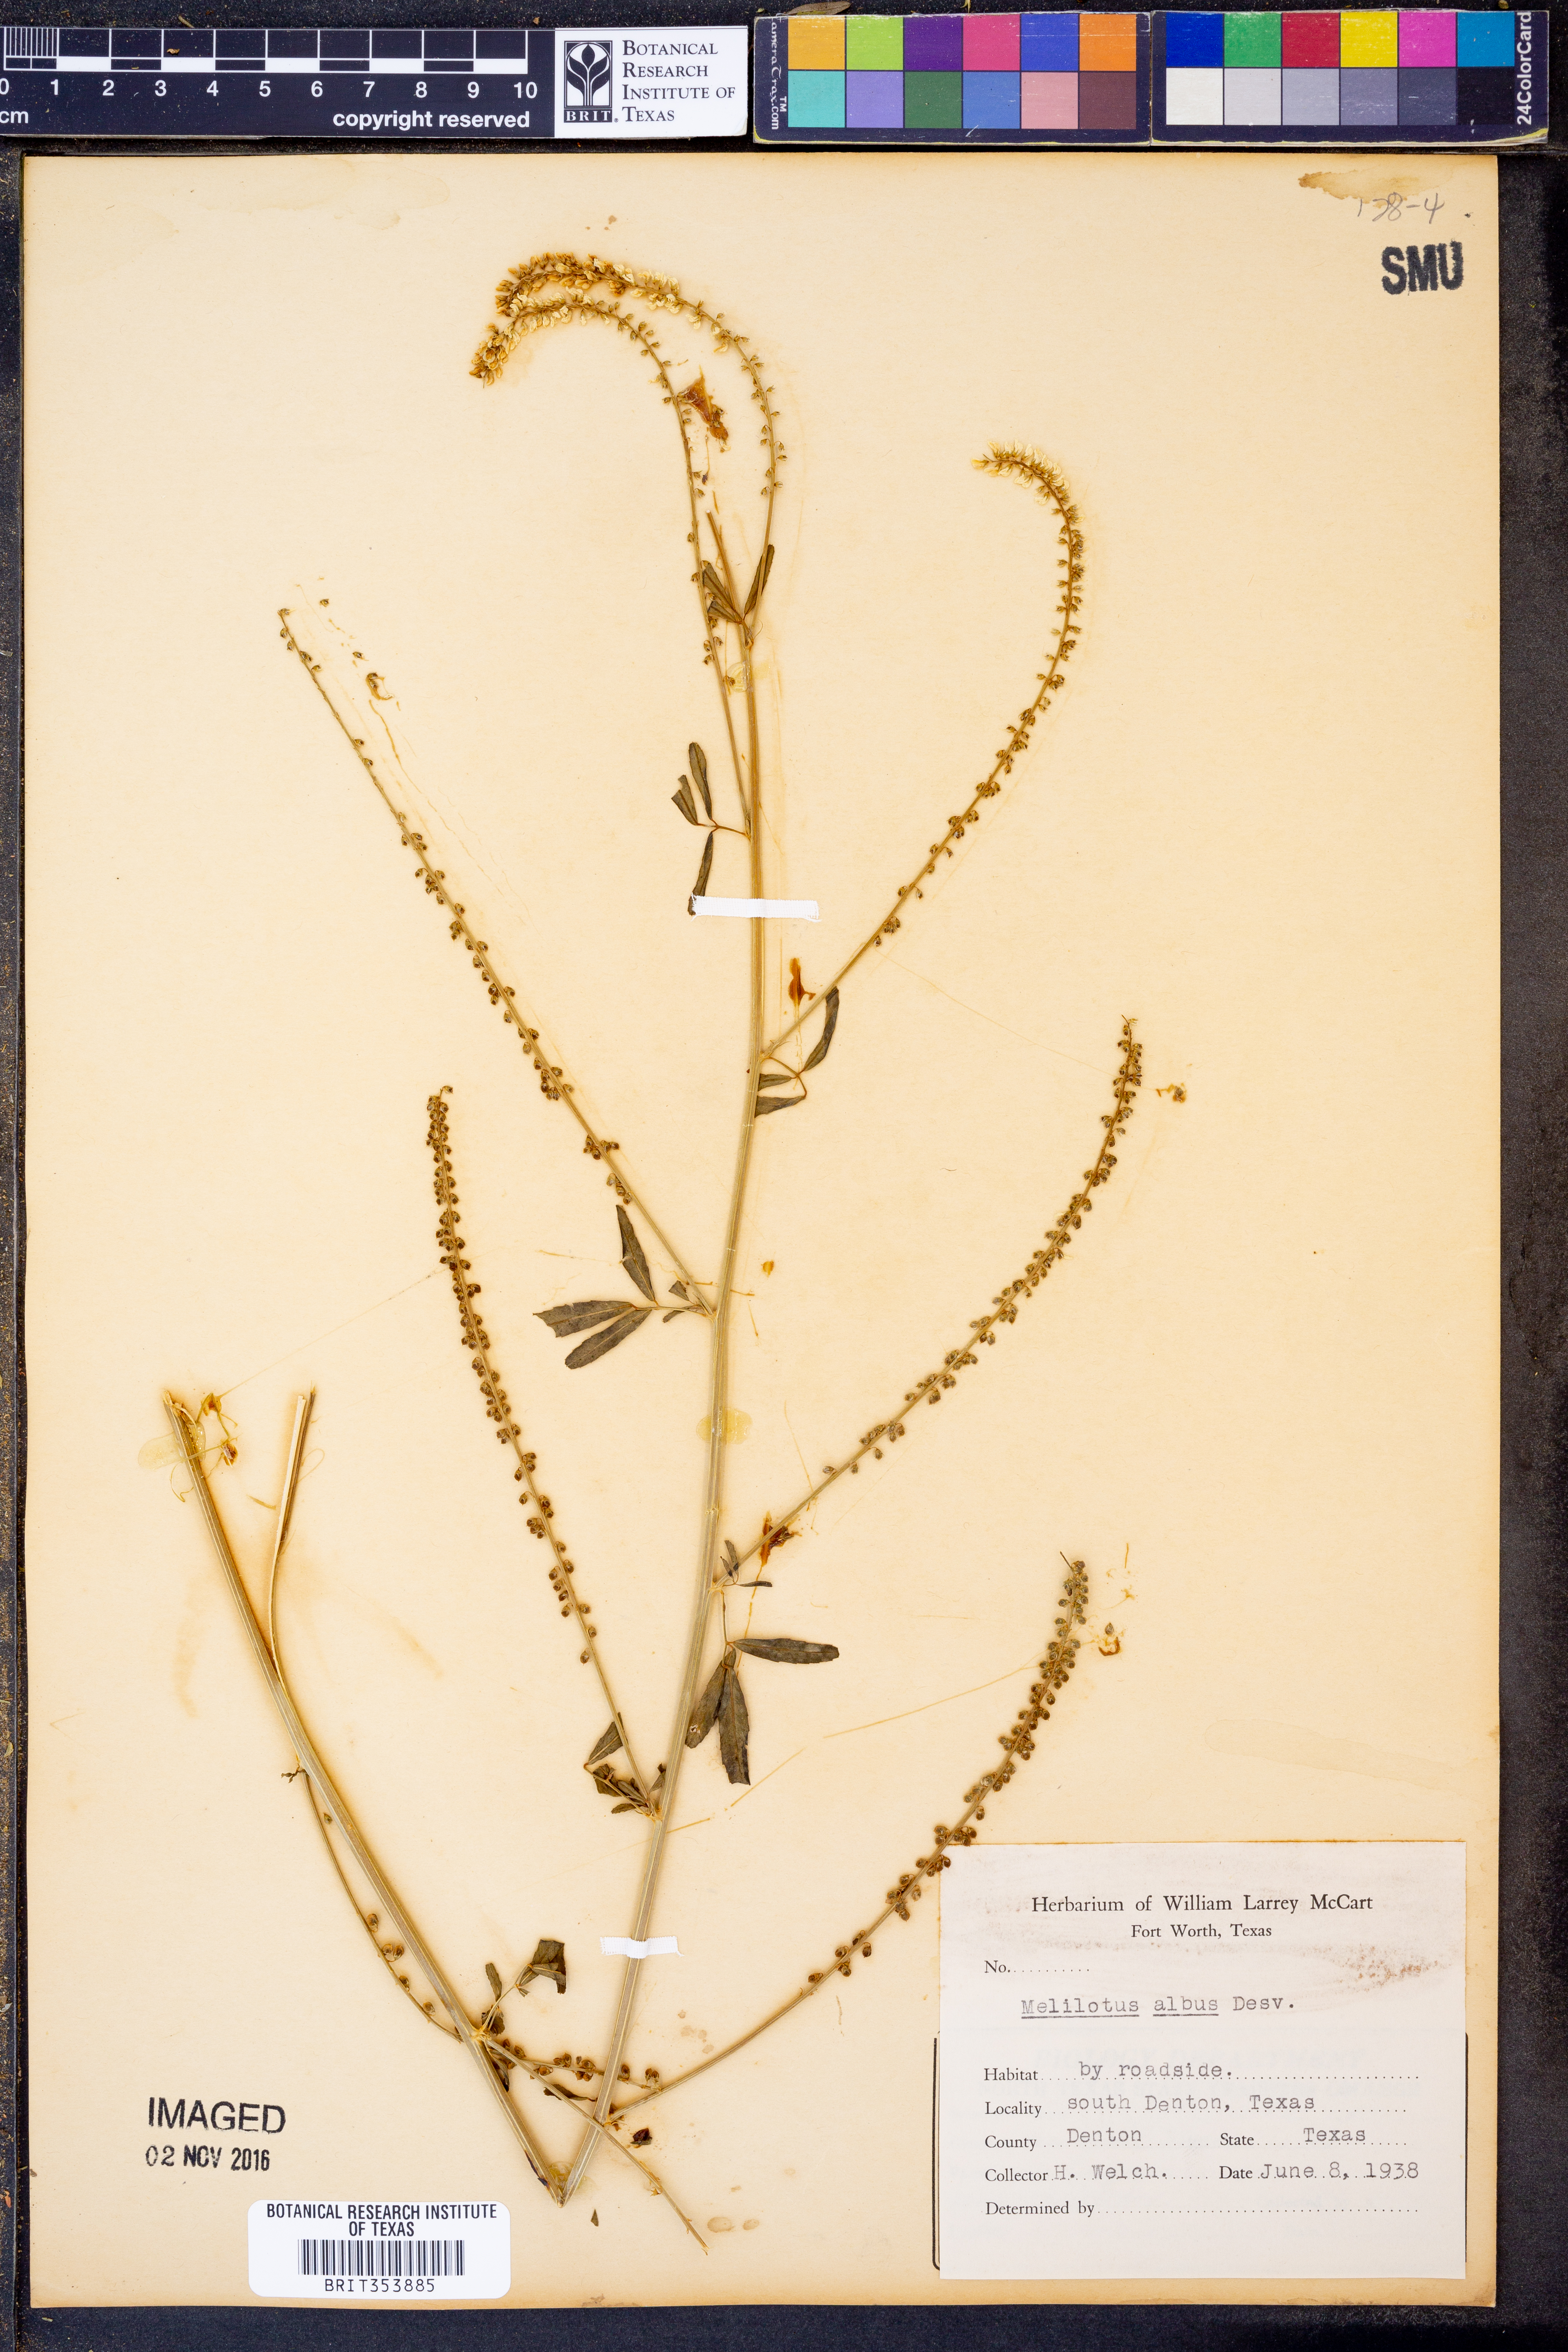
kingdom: Plantae
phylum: Tracheophyta
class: Magnoliopsida
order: Fabales
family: Fabaceae
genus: Melilotus
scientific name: Melilotus albus
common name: White melilot
